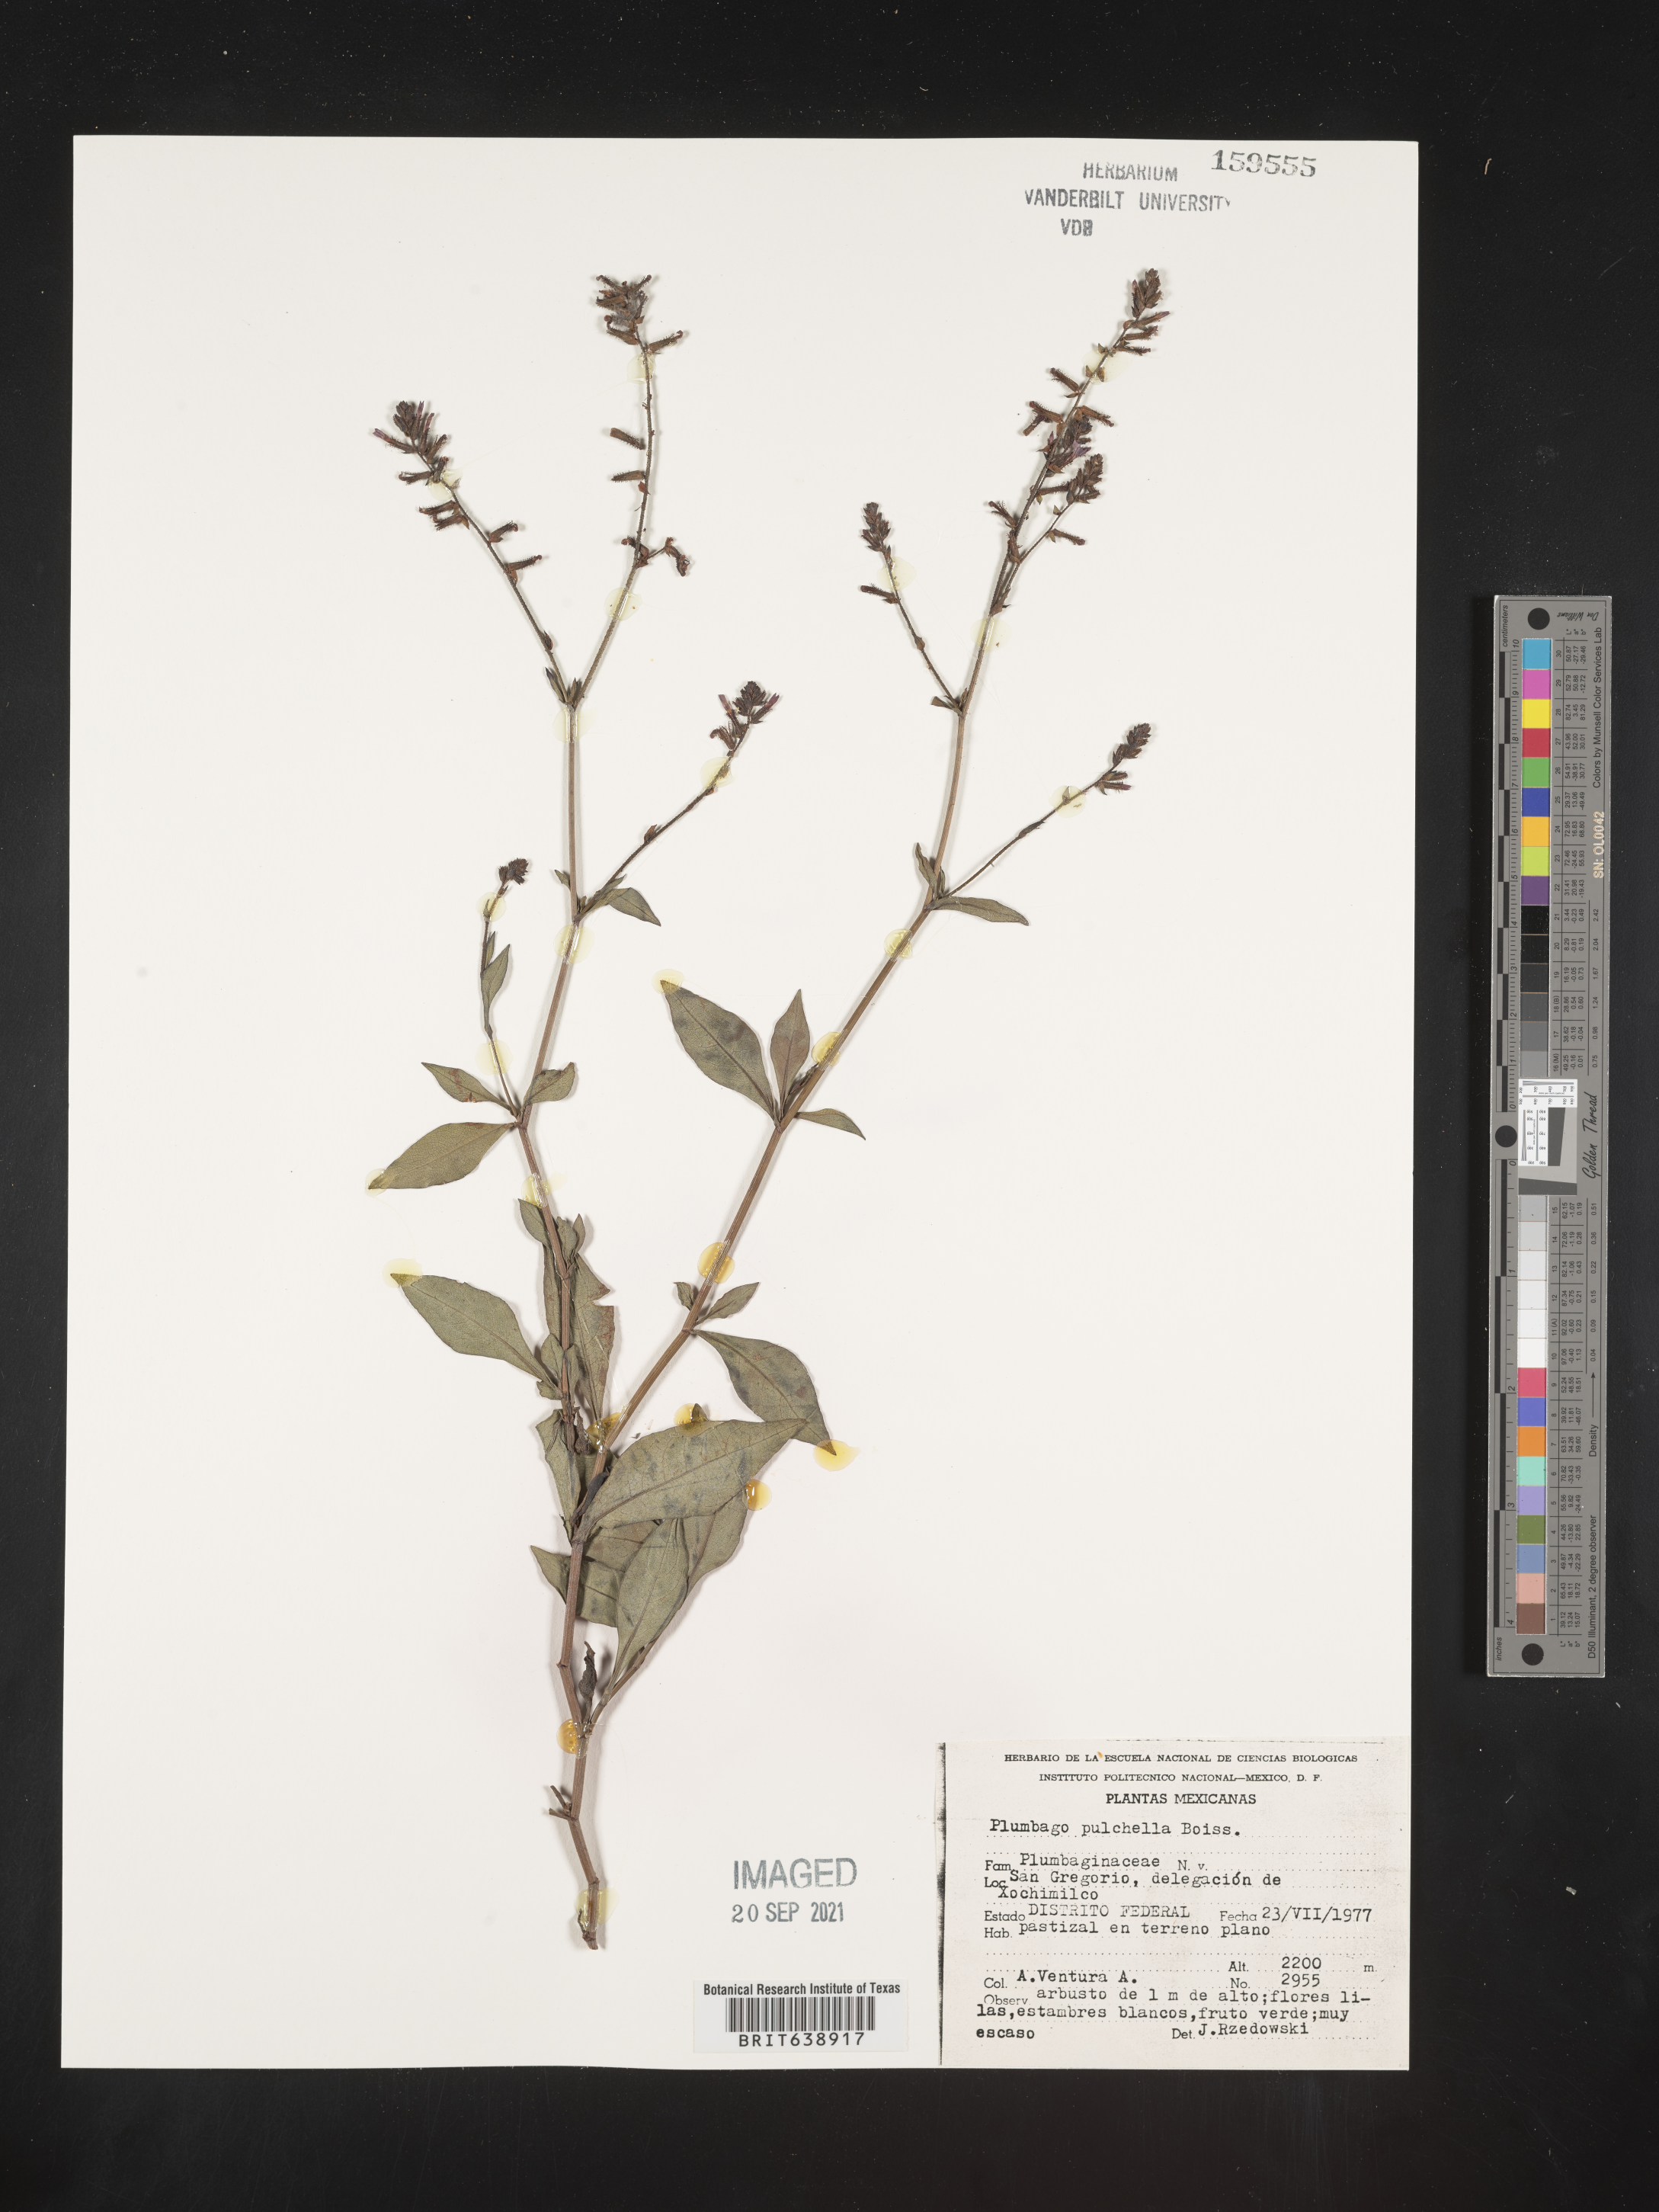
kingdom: Plantae
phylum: Tracheophyta
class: Magnoliopsida
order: Caryophyllales
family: Plumbaginaceae
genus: Plumbago
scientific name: Plumbago
